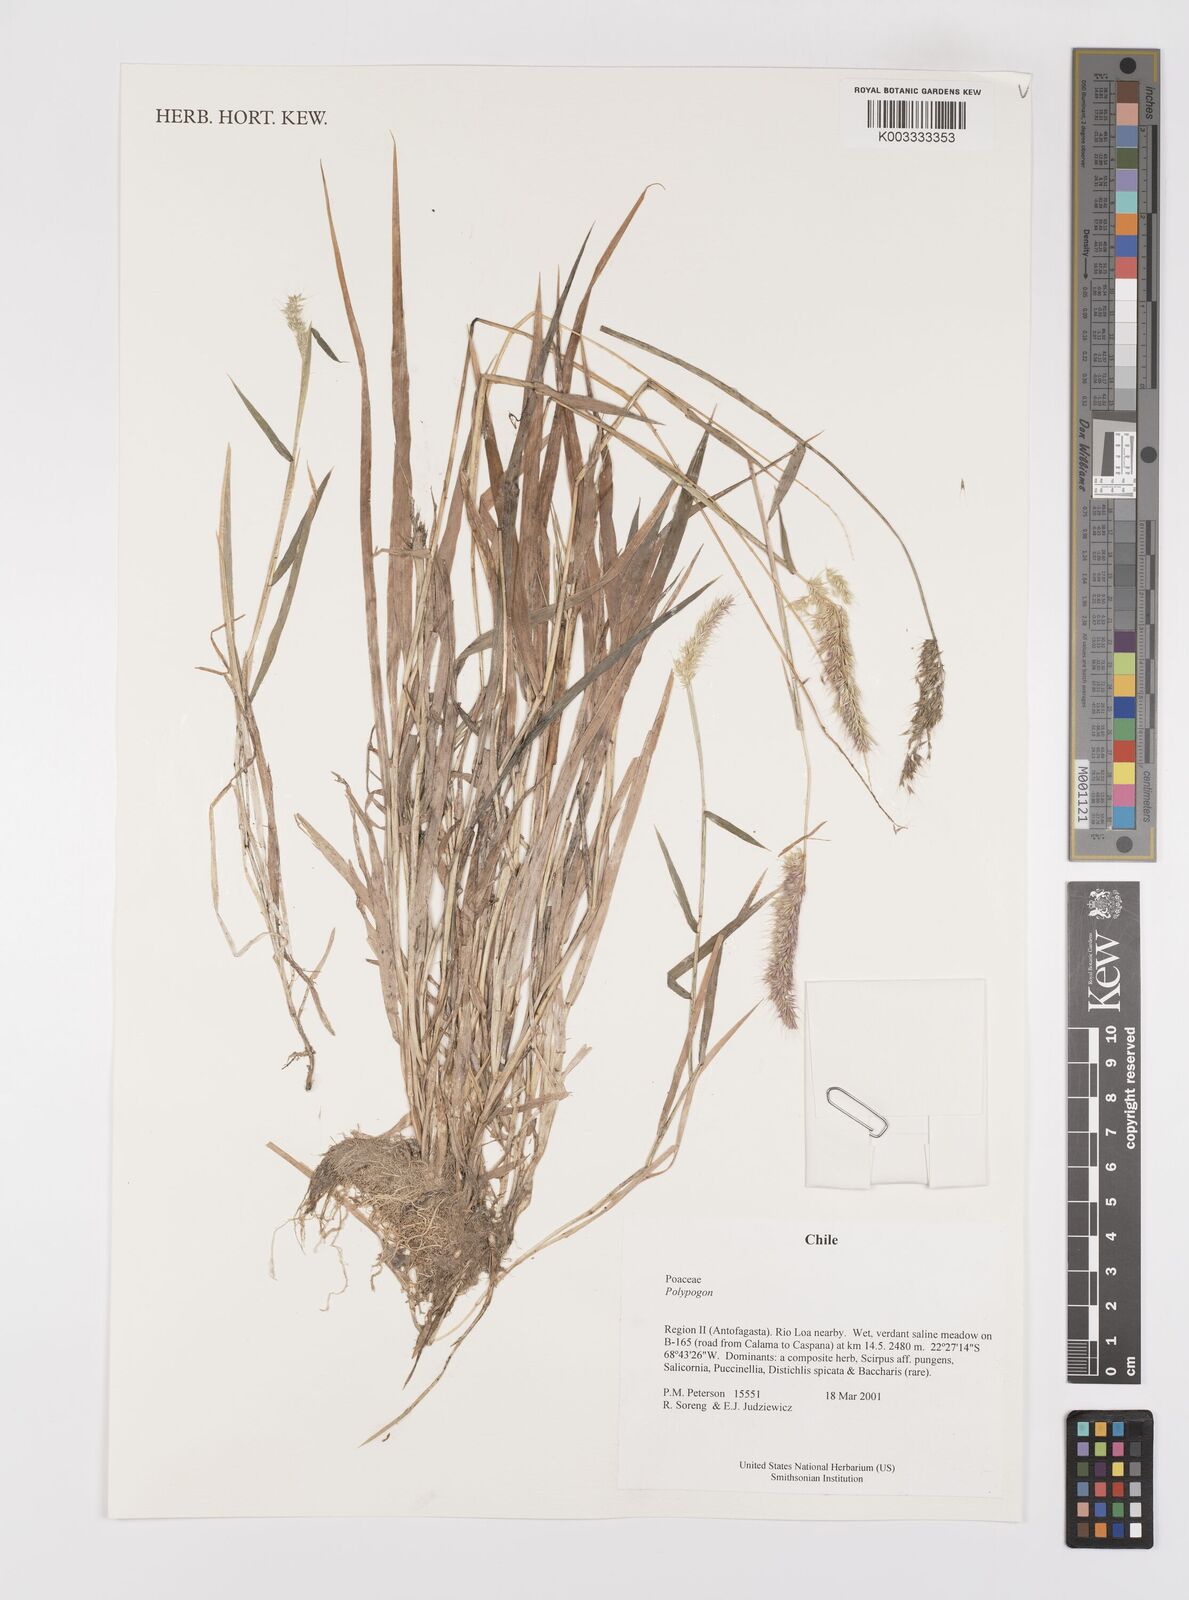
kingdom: Plantae
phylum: Tracheophyta
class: Liliopsida
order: Poales
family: Poaceae
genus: Polypogon
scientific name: Polypogon
